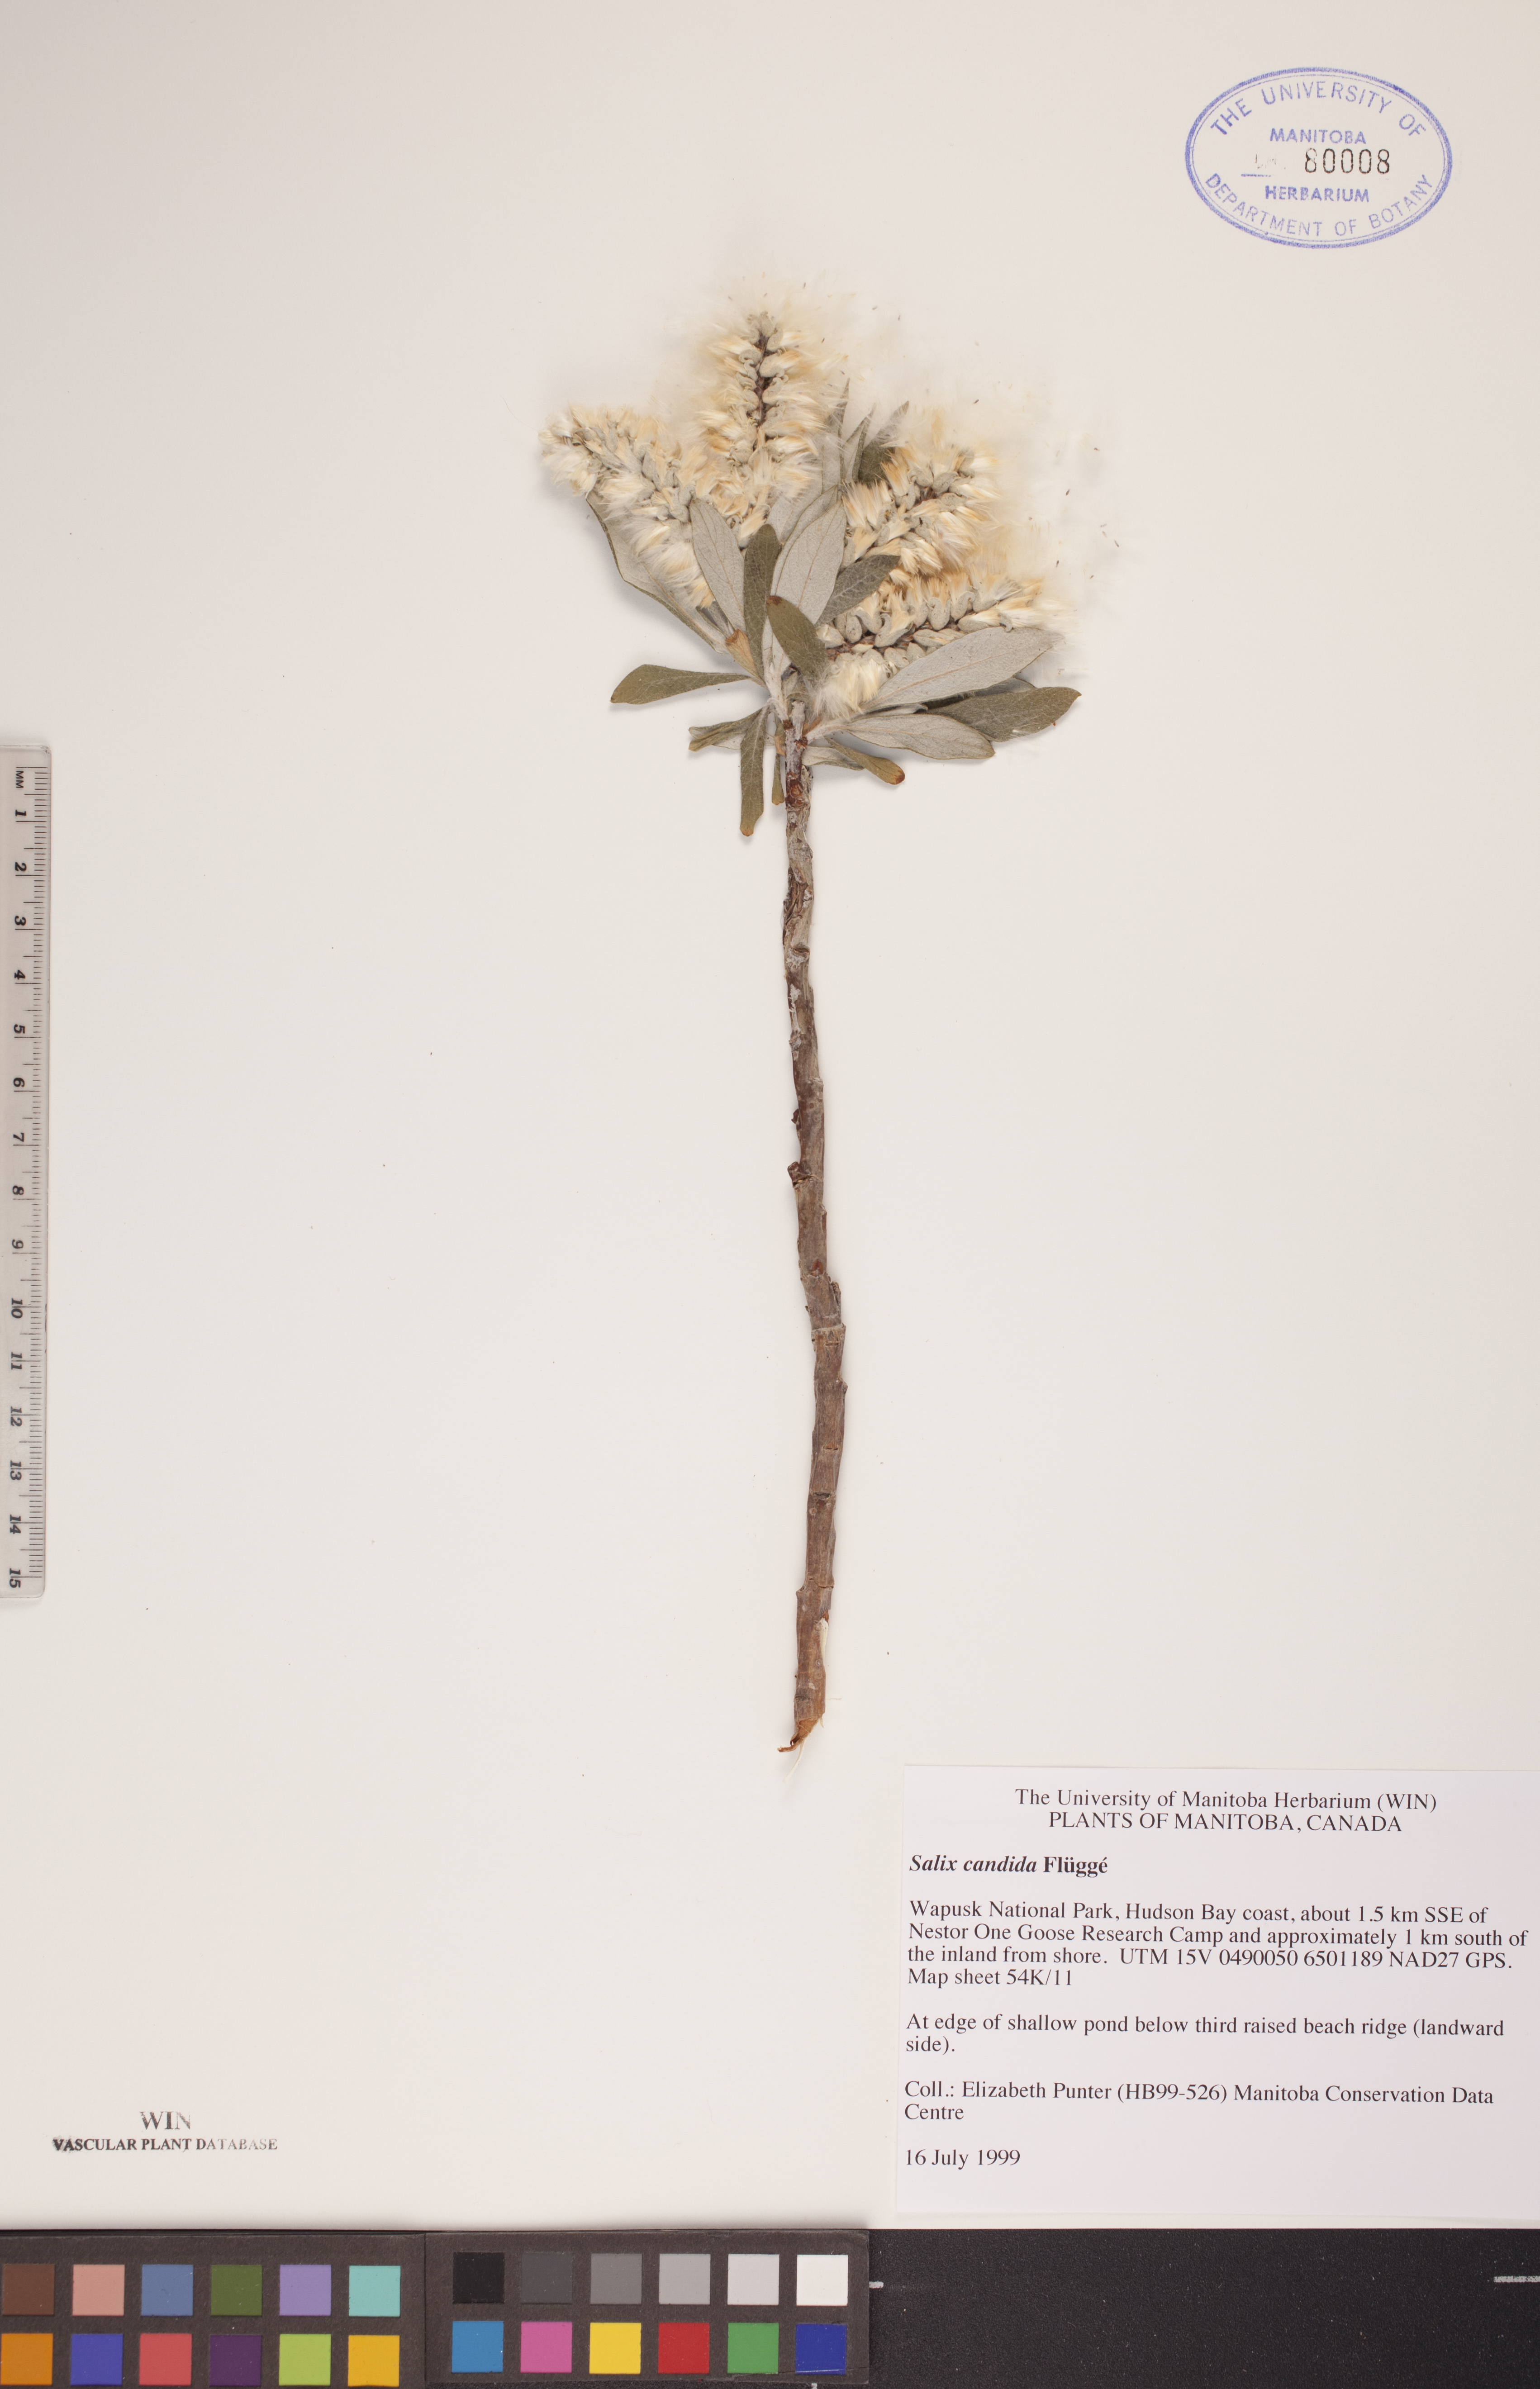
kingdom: Plantae
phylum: Tracheophyta
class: Magnoliopsida
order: Malpighiales
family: Salicaceae
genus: Salix
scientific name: Salix candida
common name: Hoary willow
